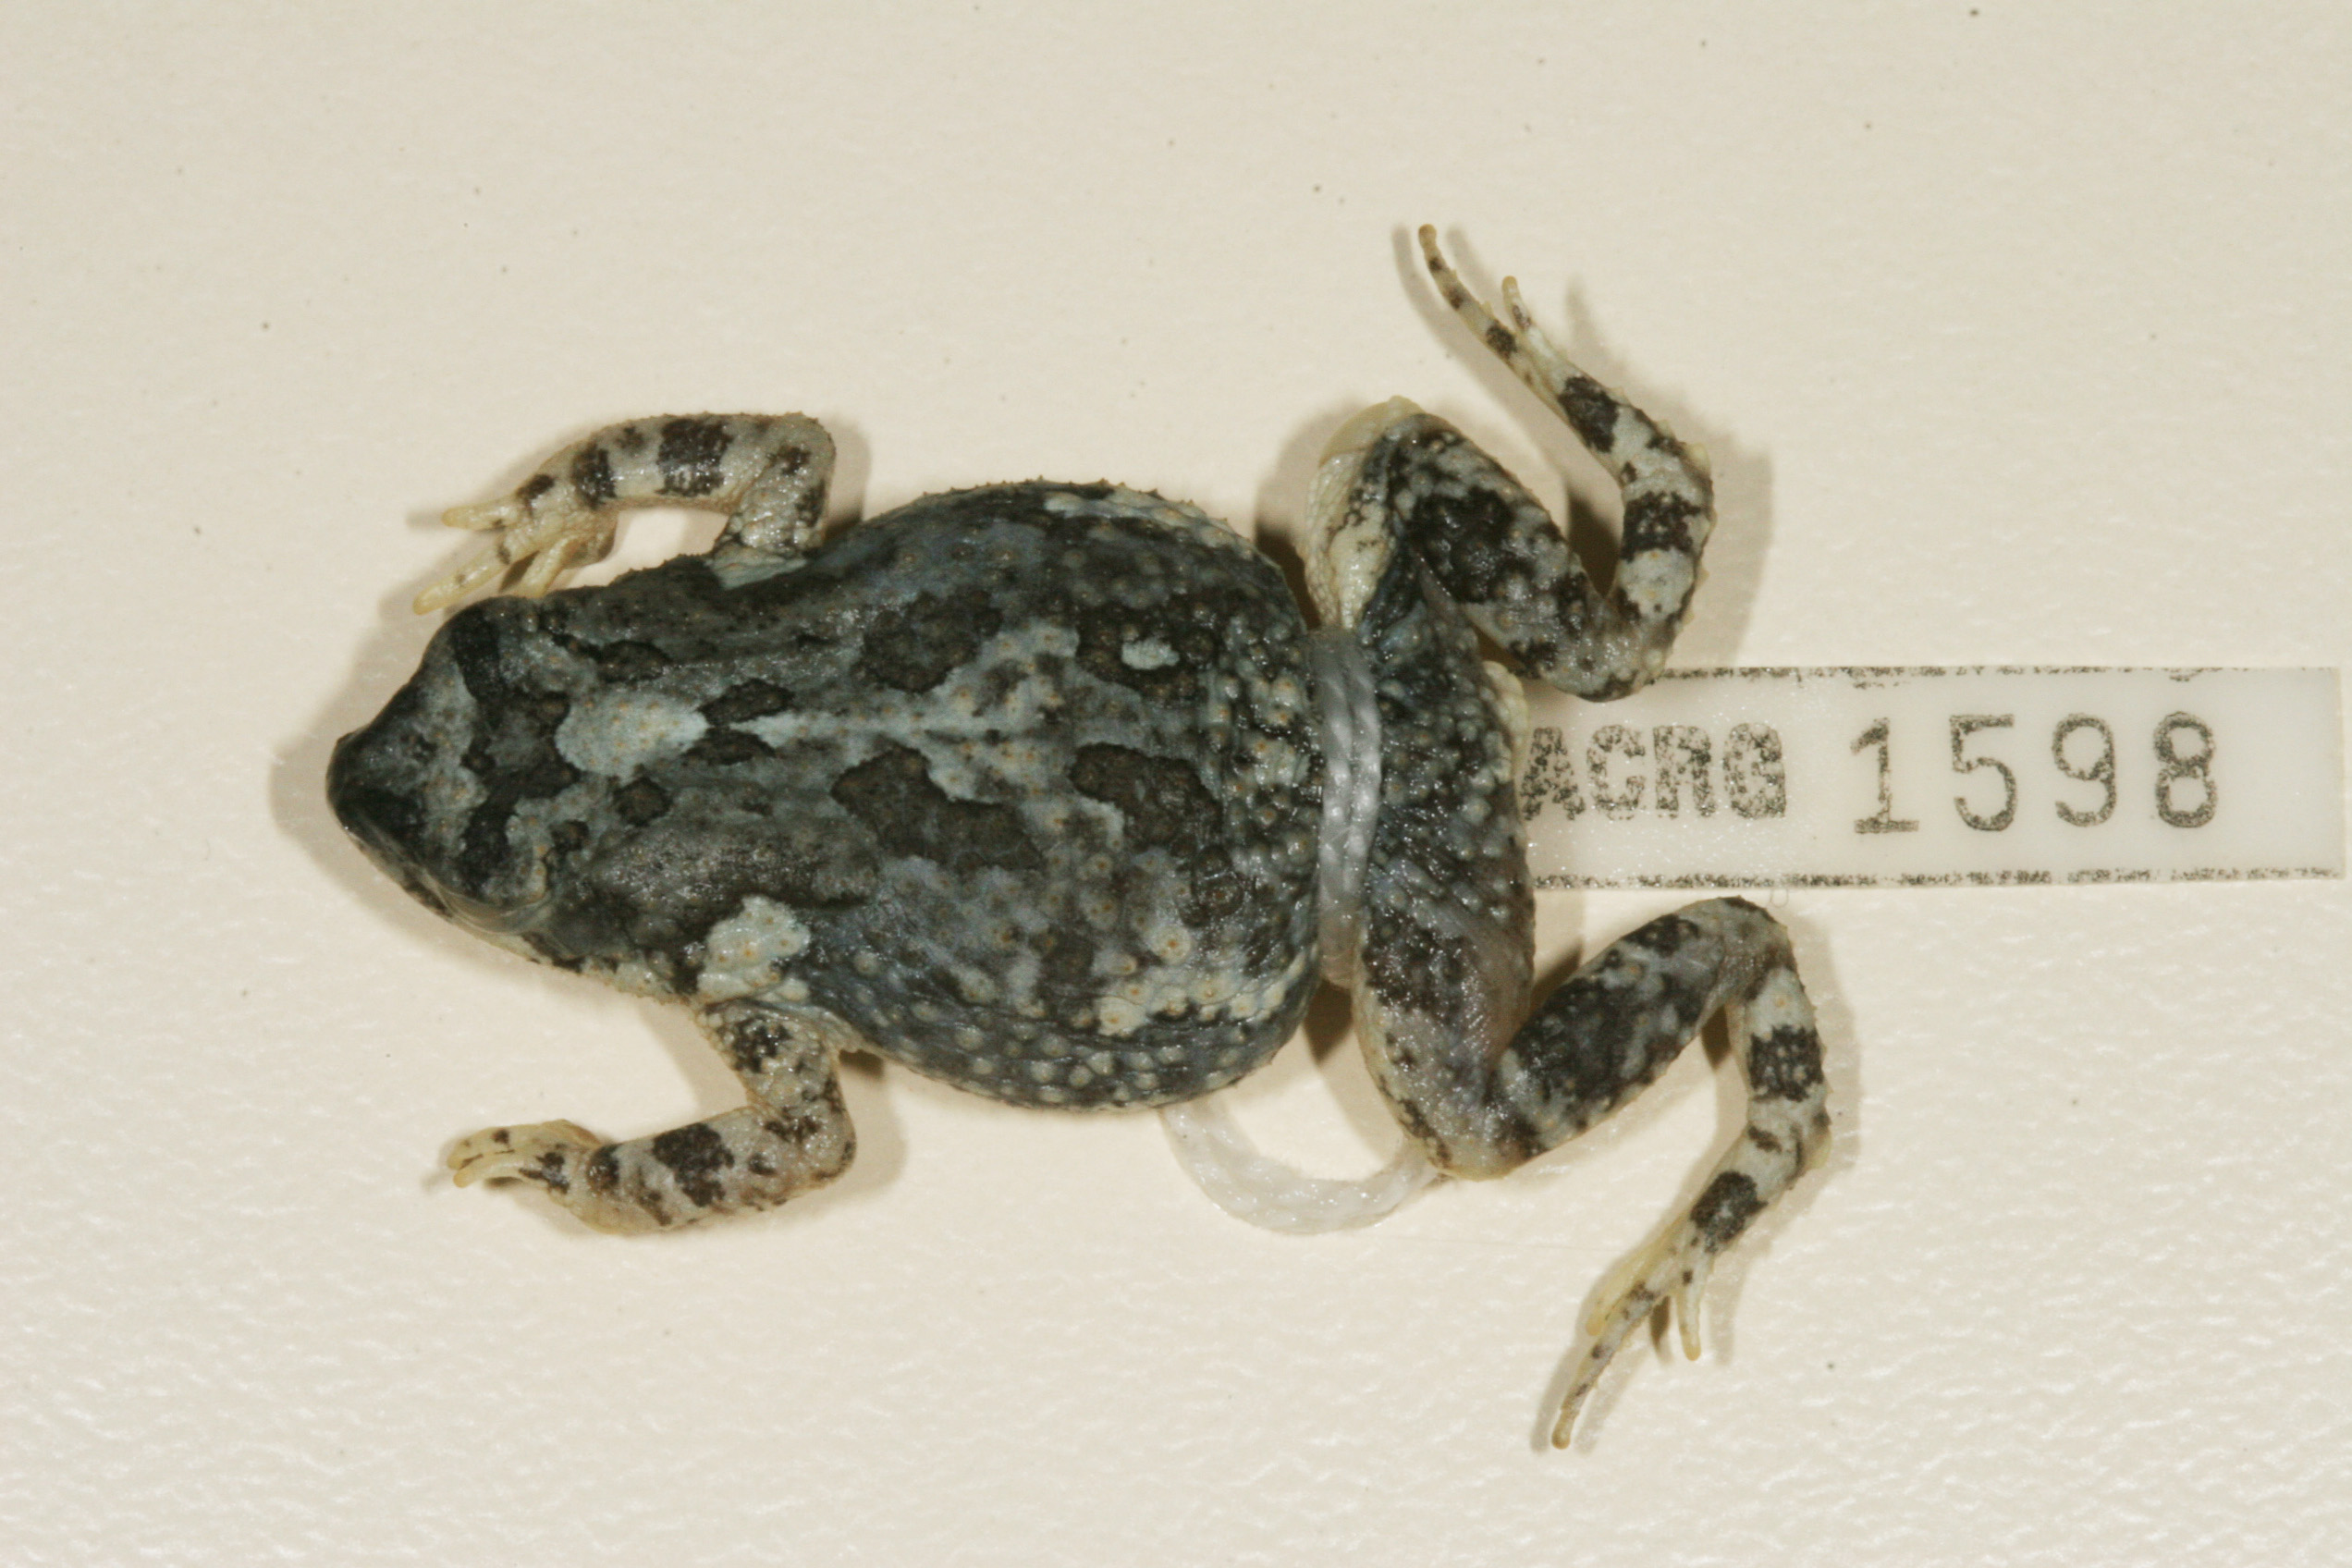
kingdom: Animalia
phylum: Chordata
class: Amphibia
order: Anura
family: Bufonidae
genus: Poyntonophrynus
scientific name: Poyntonophrynus fenoulheti
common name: Fenoulhet's toad
